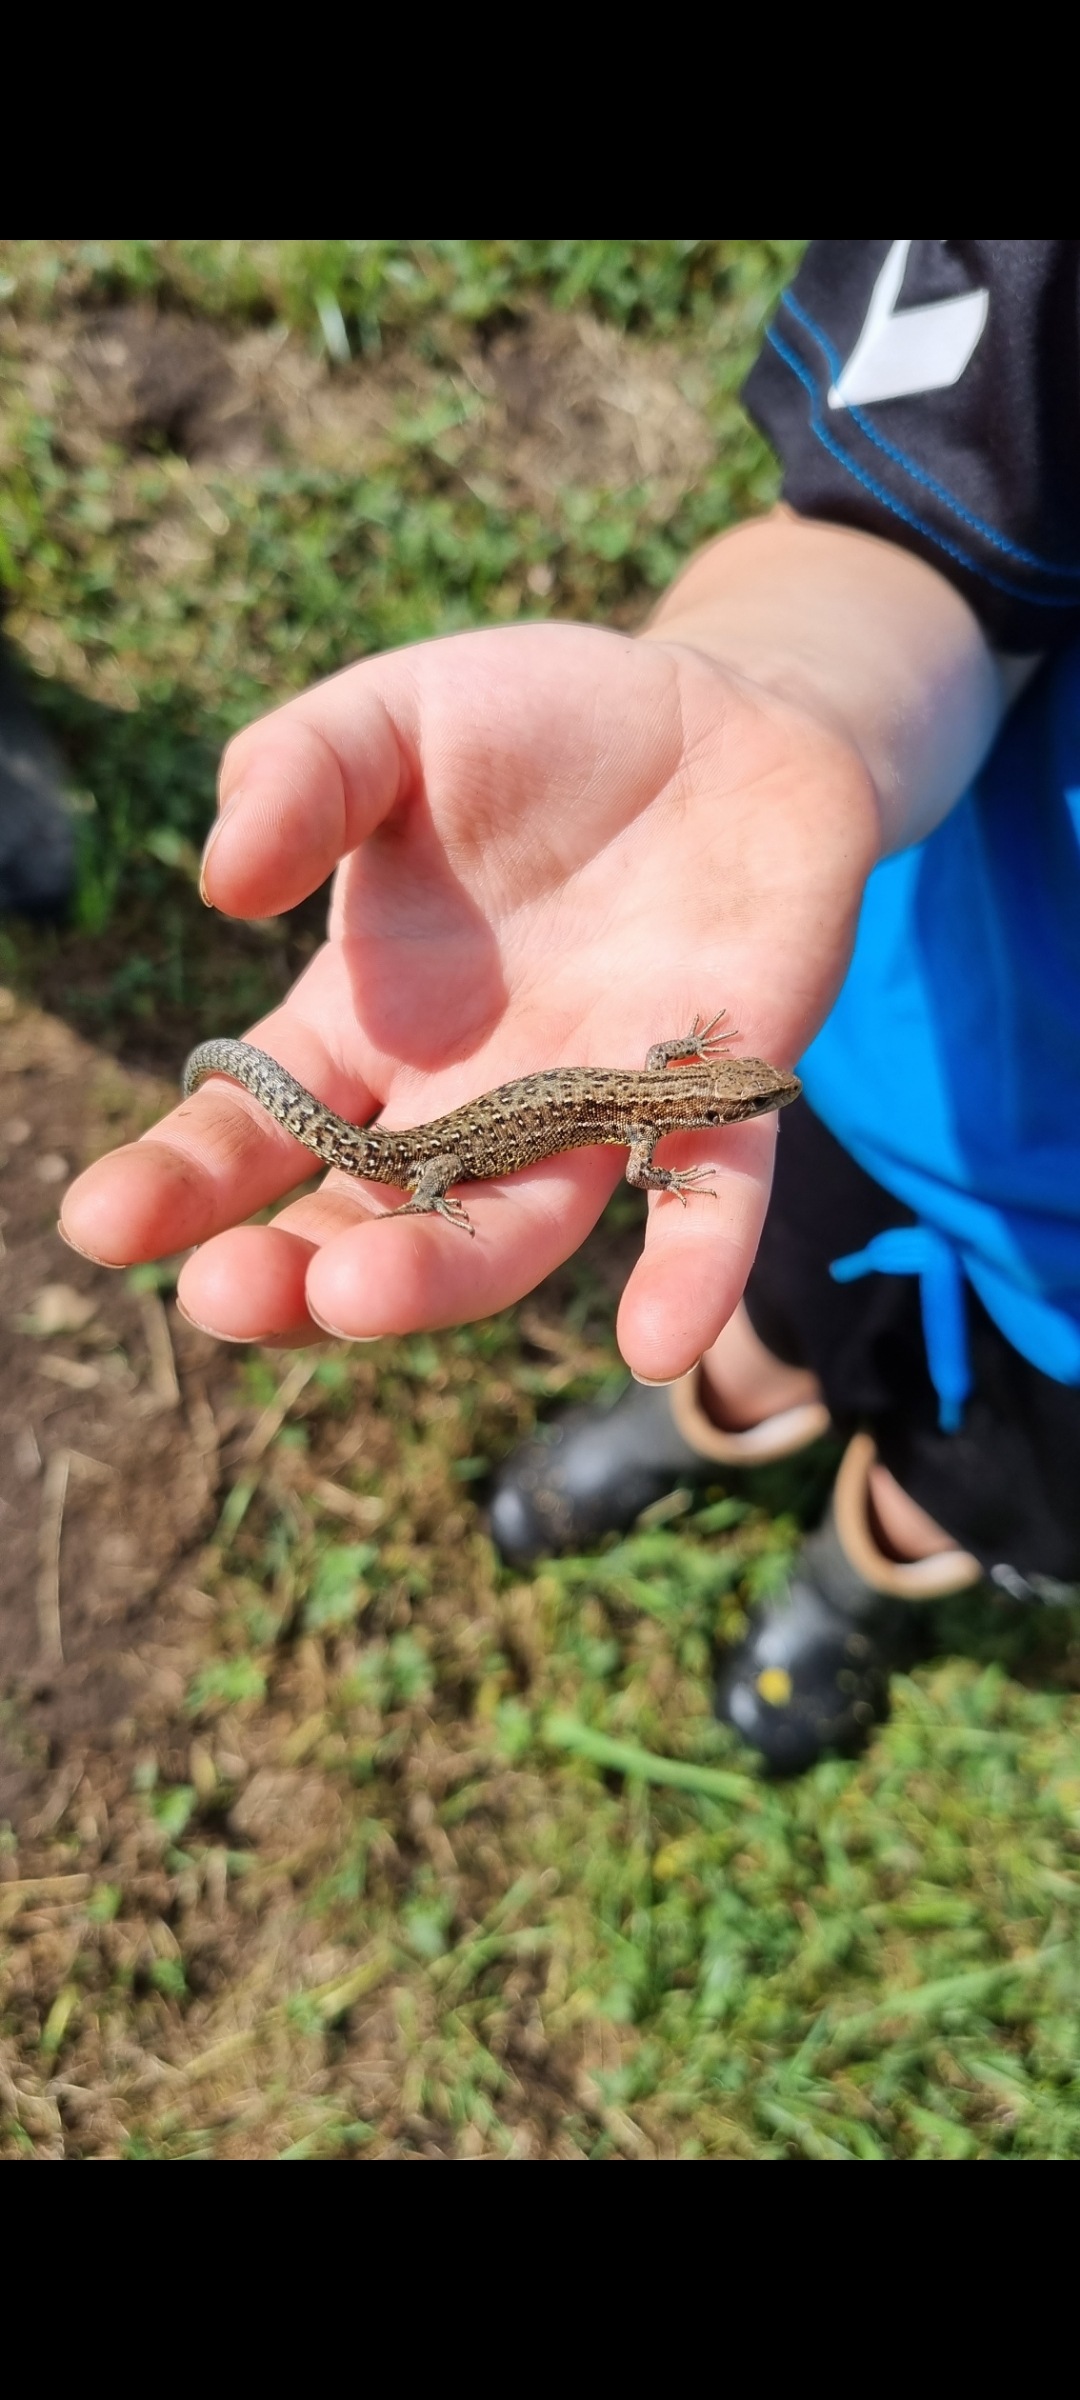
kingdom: Animalia
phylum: Chordata
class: Squamata
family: Lacertidae
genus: Zootoca
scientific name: Zootoca vivipara
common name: Skovfirben
